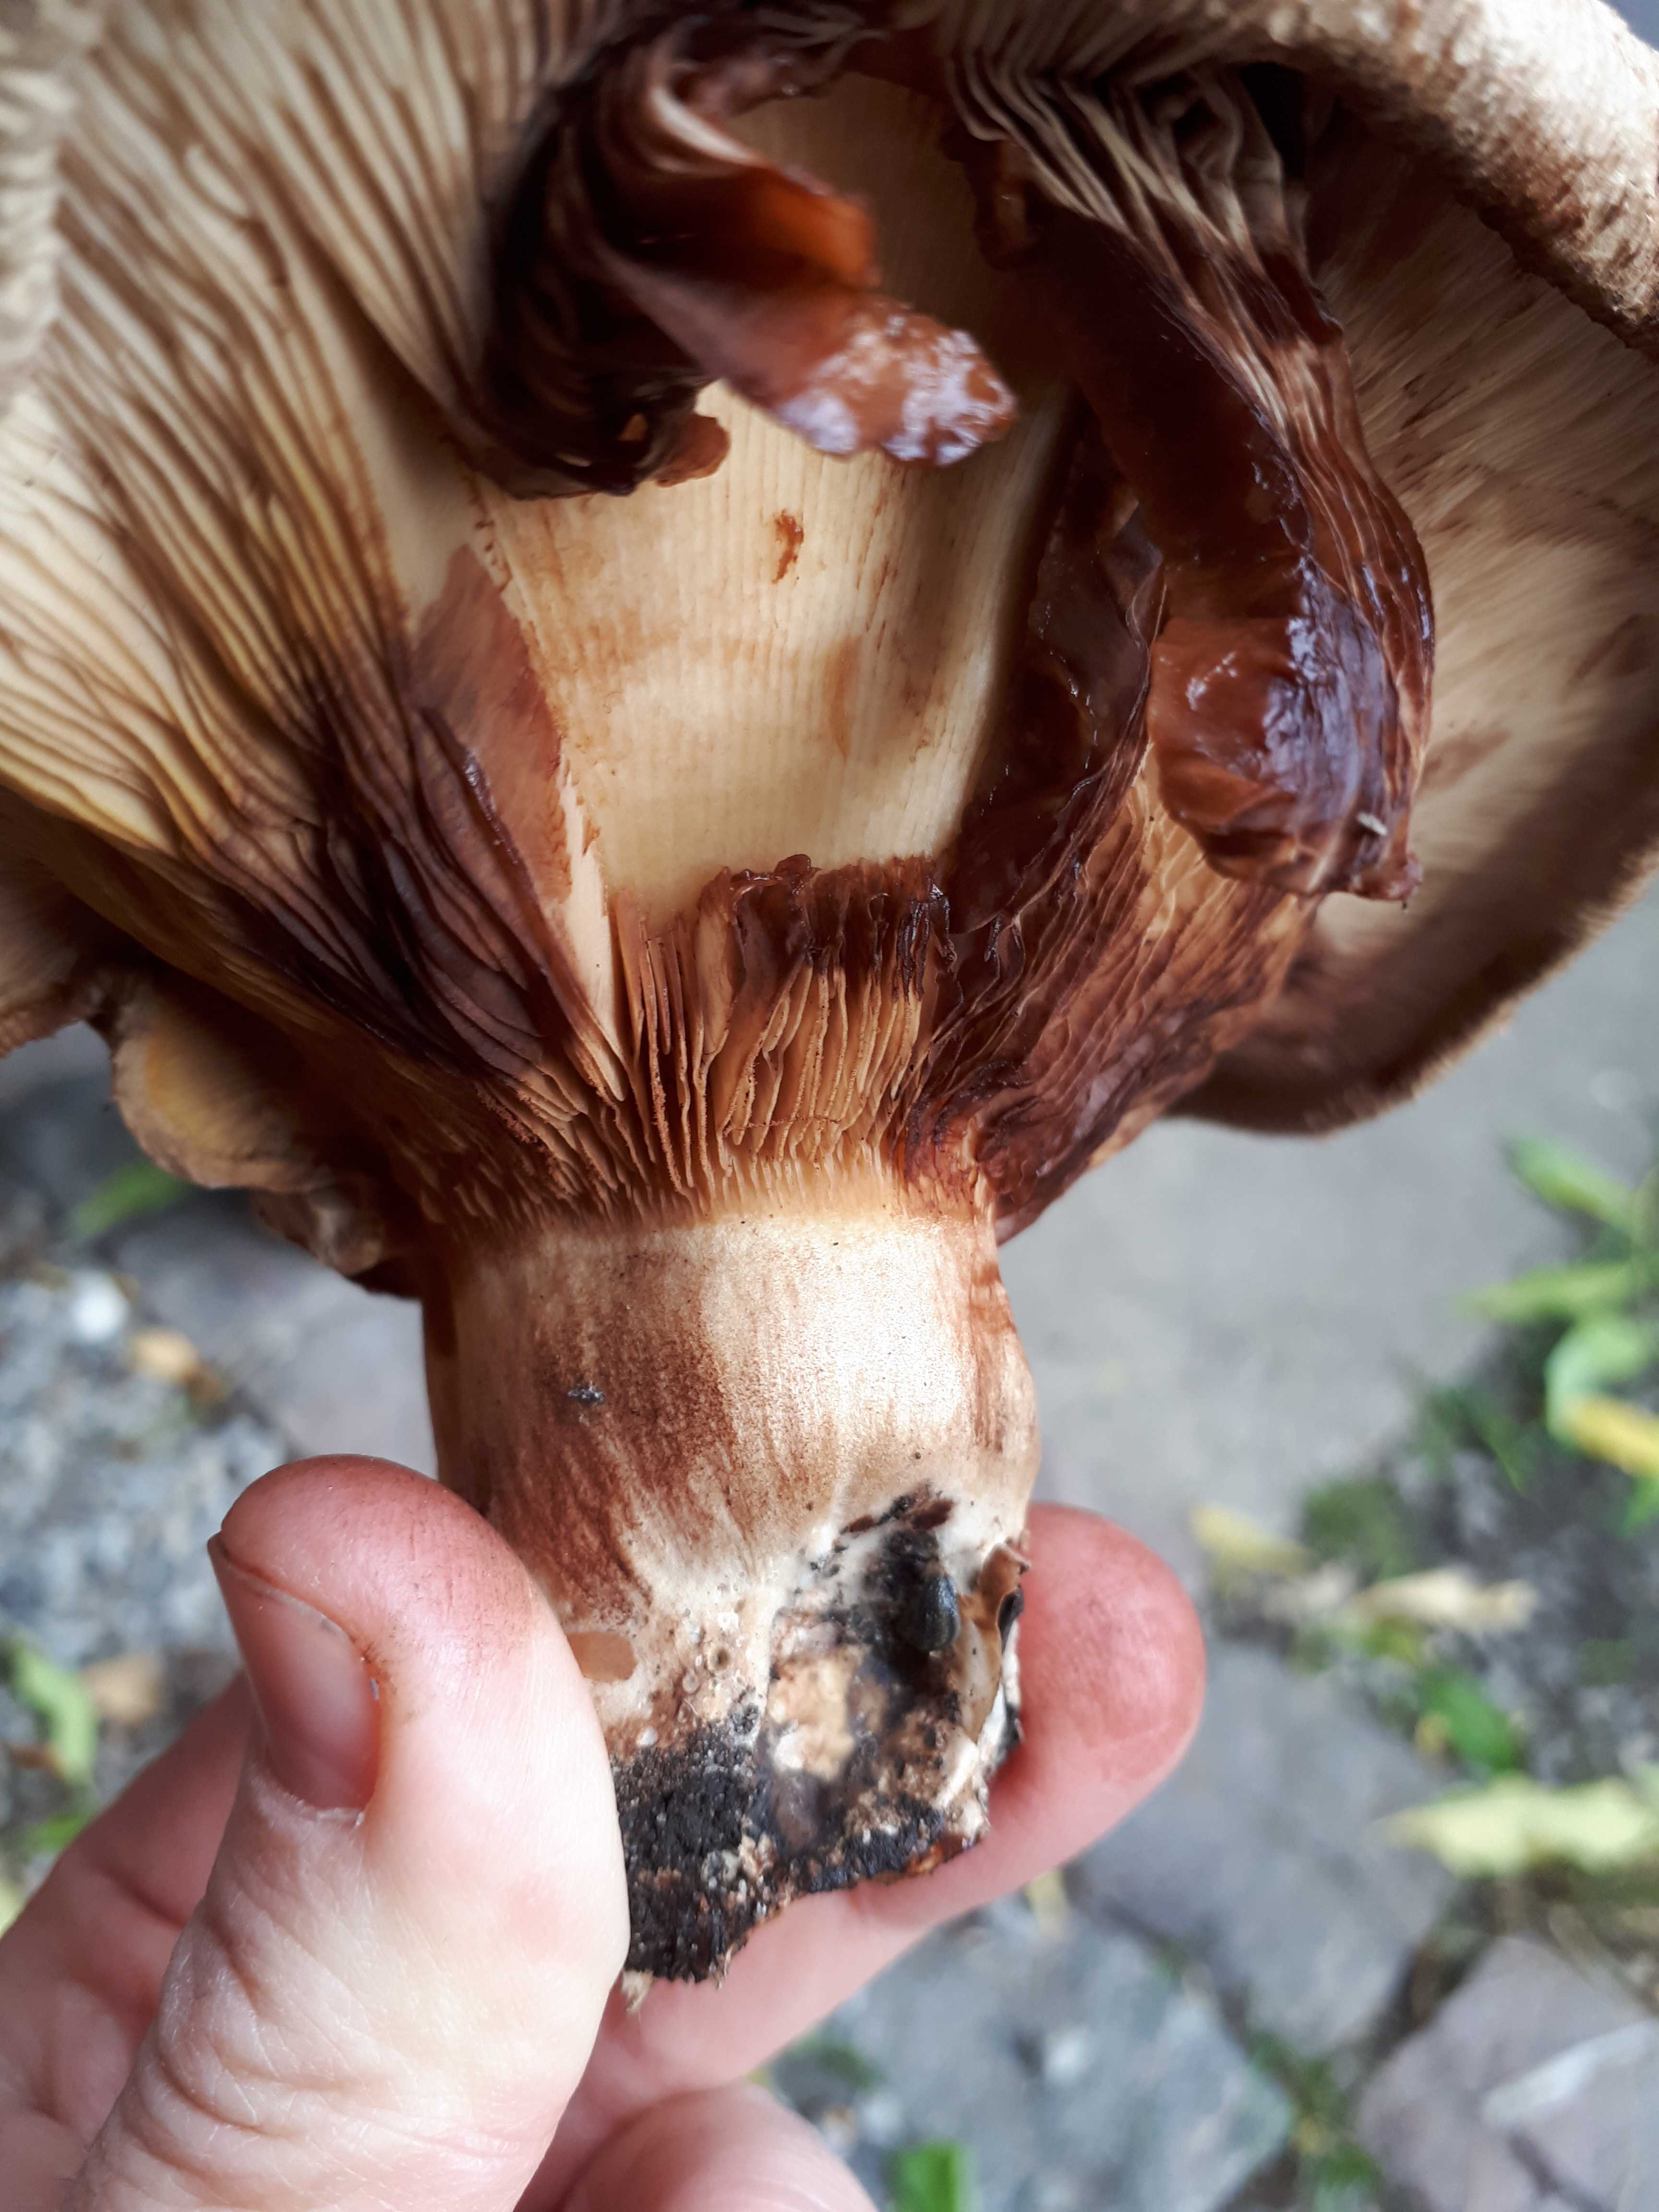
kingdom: Fungi
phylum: Basidiomycota
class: Agaricomycetes
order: Boletales
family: Paxillaceae
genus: Paxillus
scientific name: Paxillus
